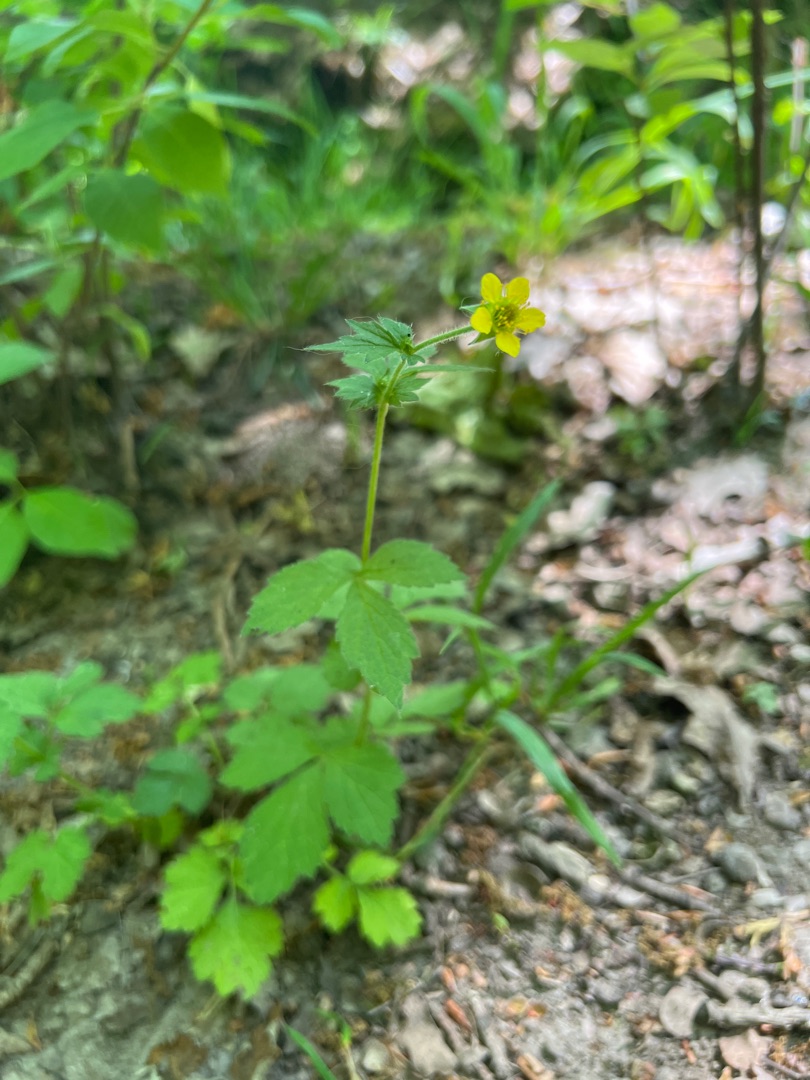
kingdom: Plantae
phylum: Tracheophyta
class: Magnoliopsida
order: Rosales
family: Rosaceae
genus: Geum
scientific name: Geum urbanum
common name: Feber-nellikerod
